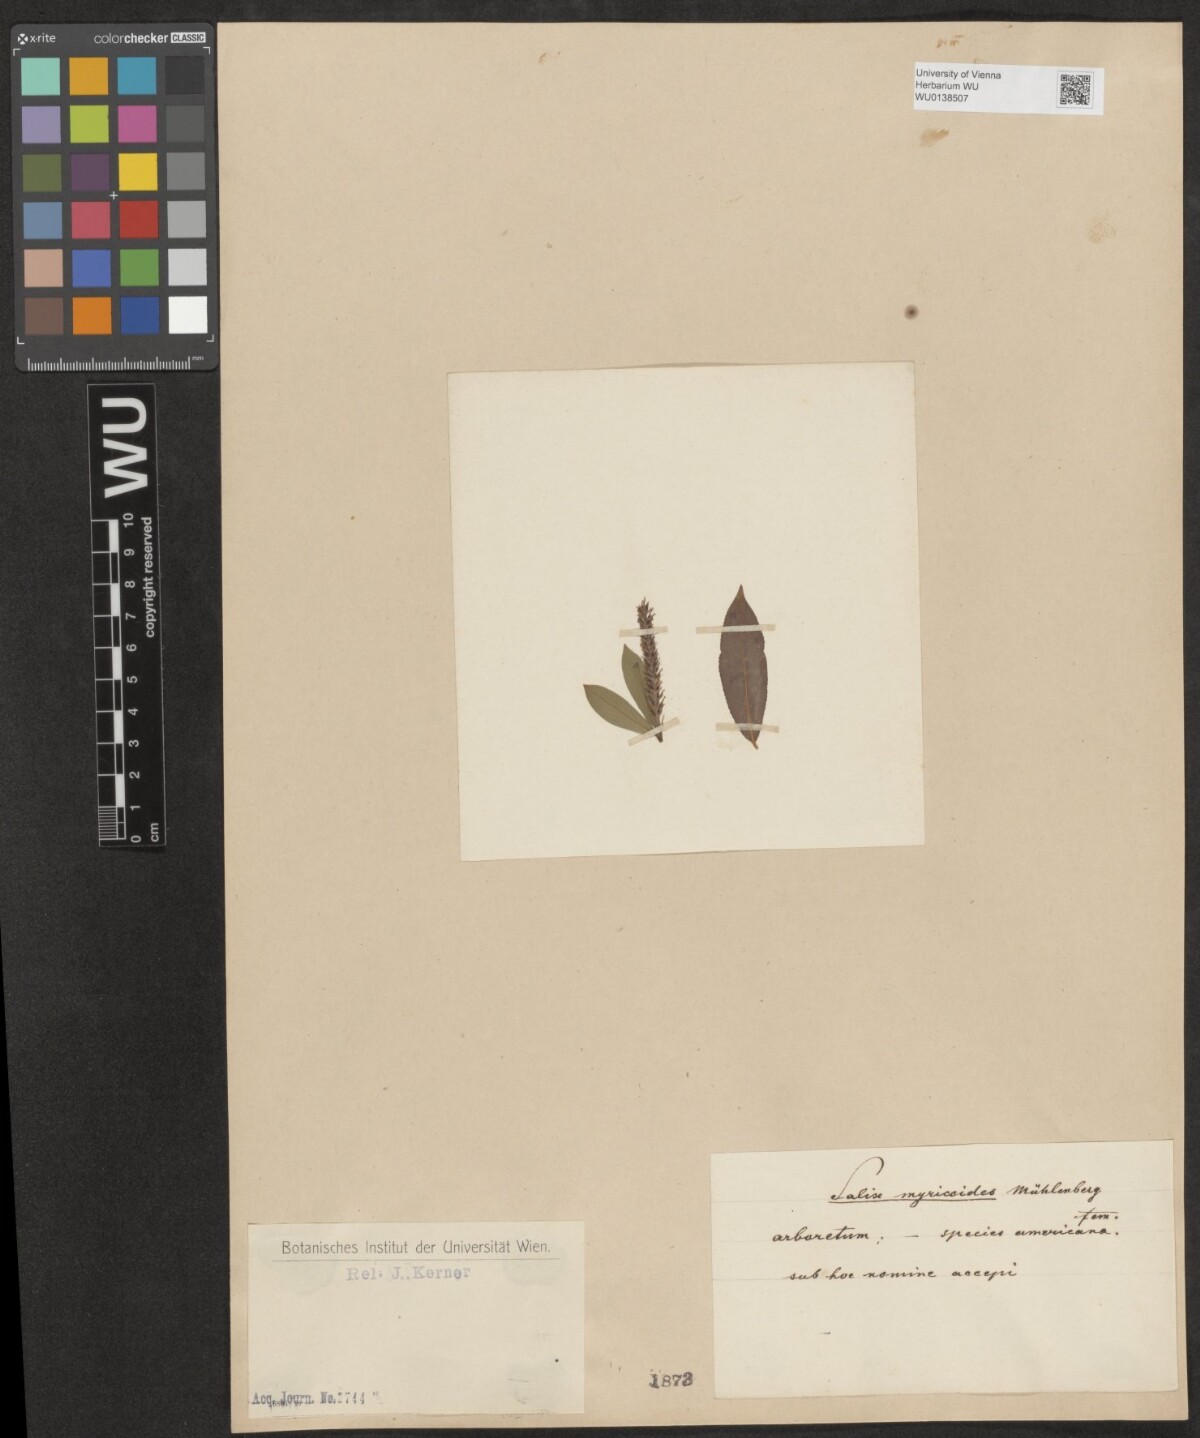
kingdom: Plantae
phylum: Tracheophyta
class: Magnoliopsida
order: Malpighiales
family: Salicaceae
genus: Salix
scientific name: Salix myricoides
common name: Bayberry willow
